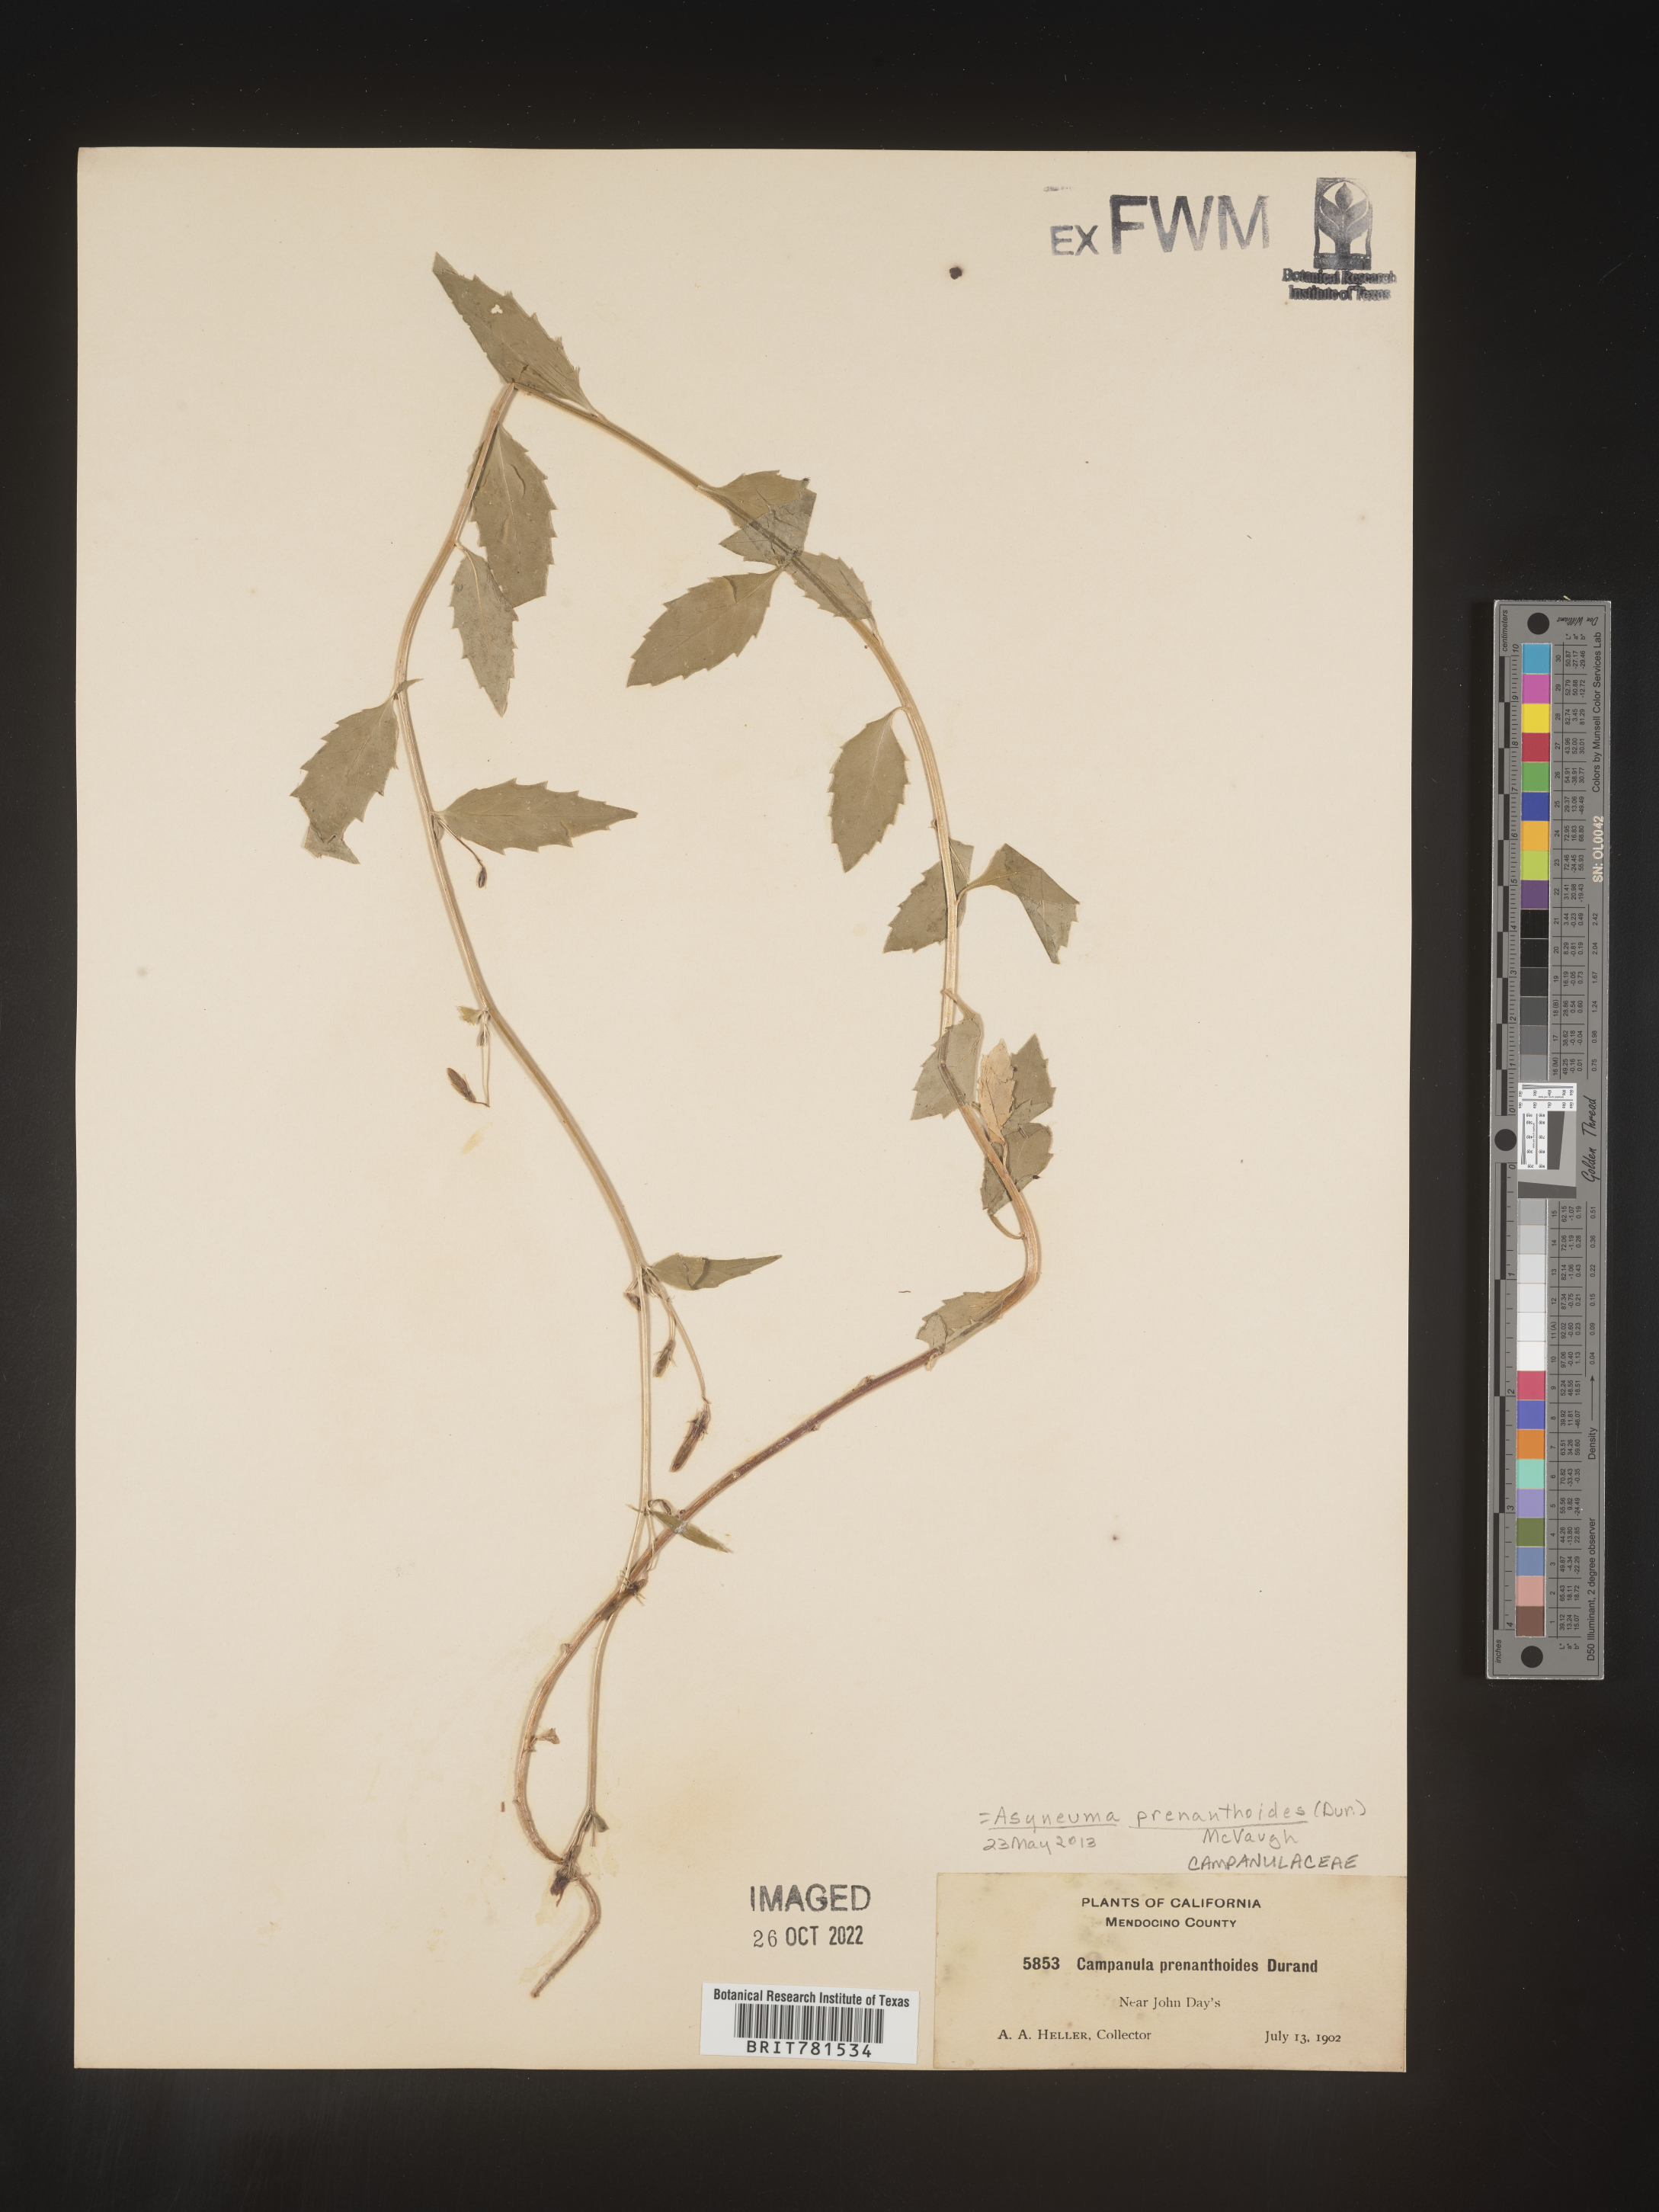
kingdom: Plantae
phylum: Tracheophyta
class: Magnoliopsida
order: Asterales
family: Campanulaceae
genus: Smithiastrum
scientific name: Smithiastrum prenanthoides
